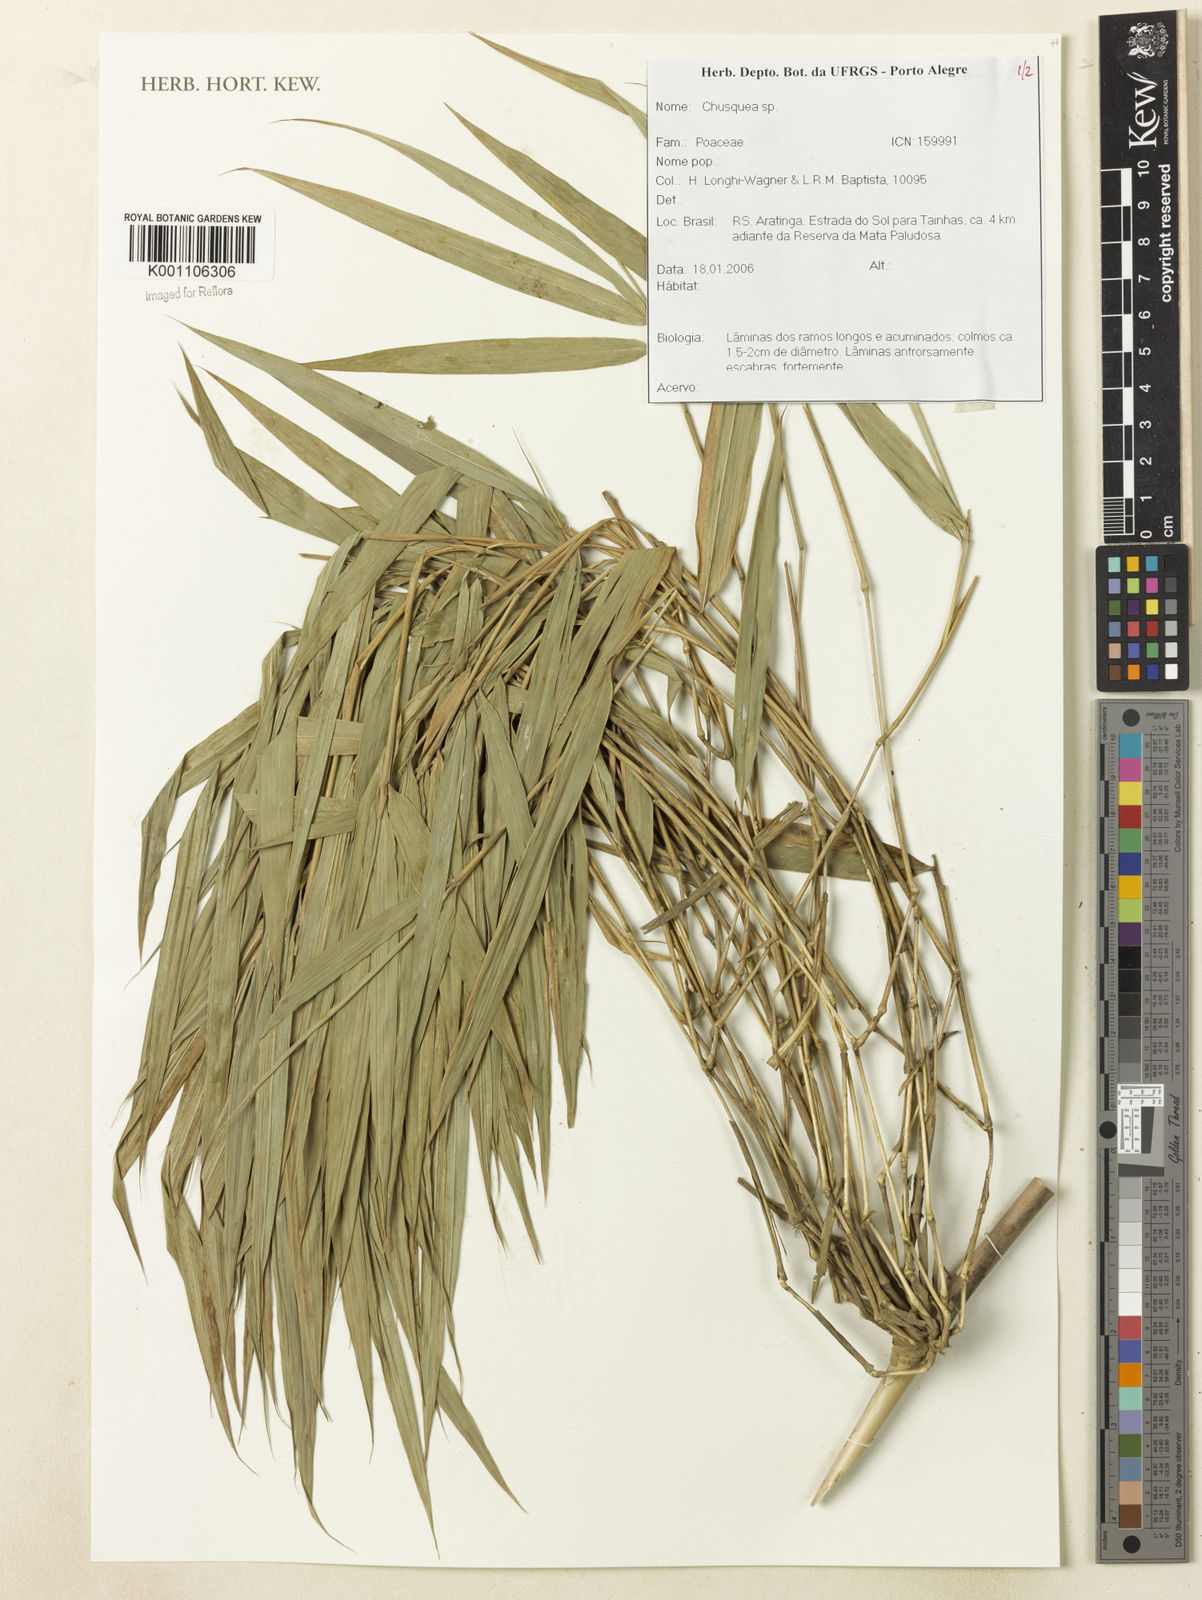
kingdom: Plantae
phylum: Tracheophyta
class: Liliopsida
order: Poales
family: Poaceae
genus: Chusquea
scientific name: Chusquea
